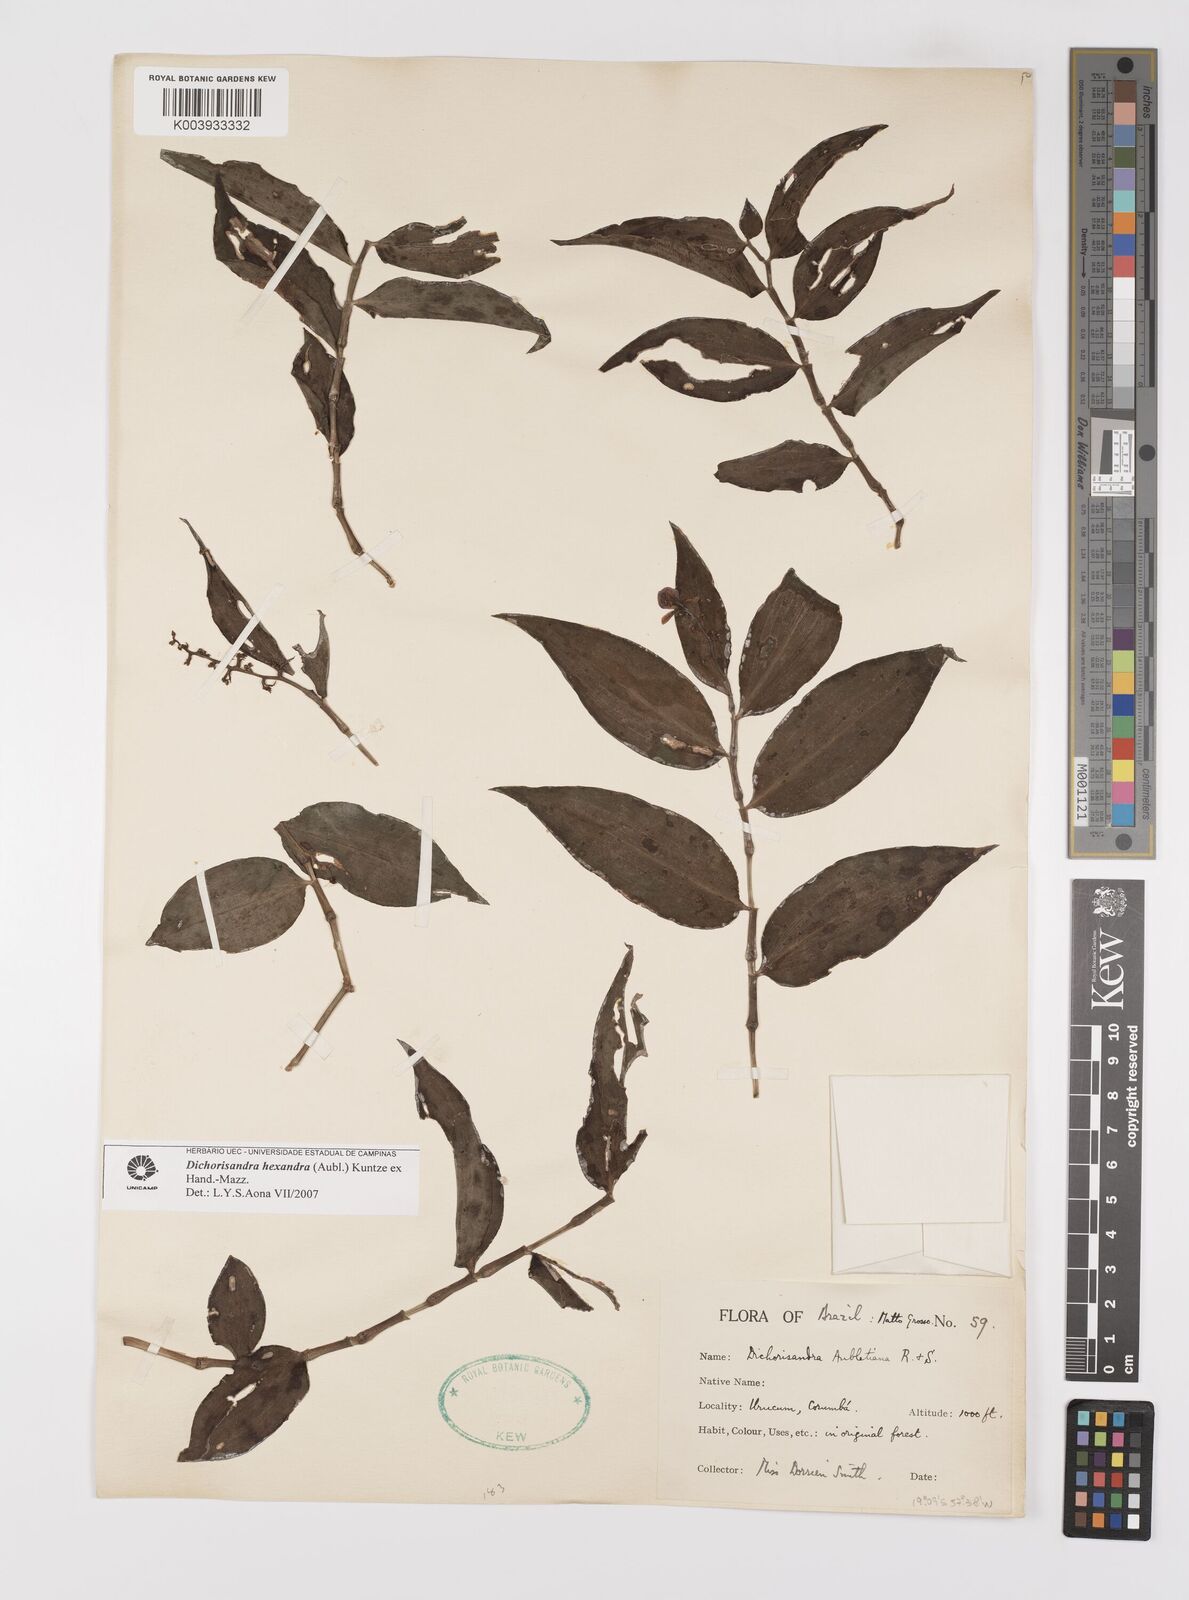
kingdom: Plantae
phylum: Tracheophyta
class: Liliopsida
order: Commelinales
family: Commelinaceae
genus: Dichorisandra
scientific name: Dichorisandra
